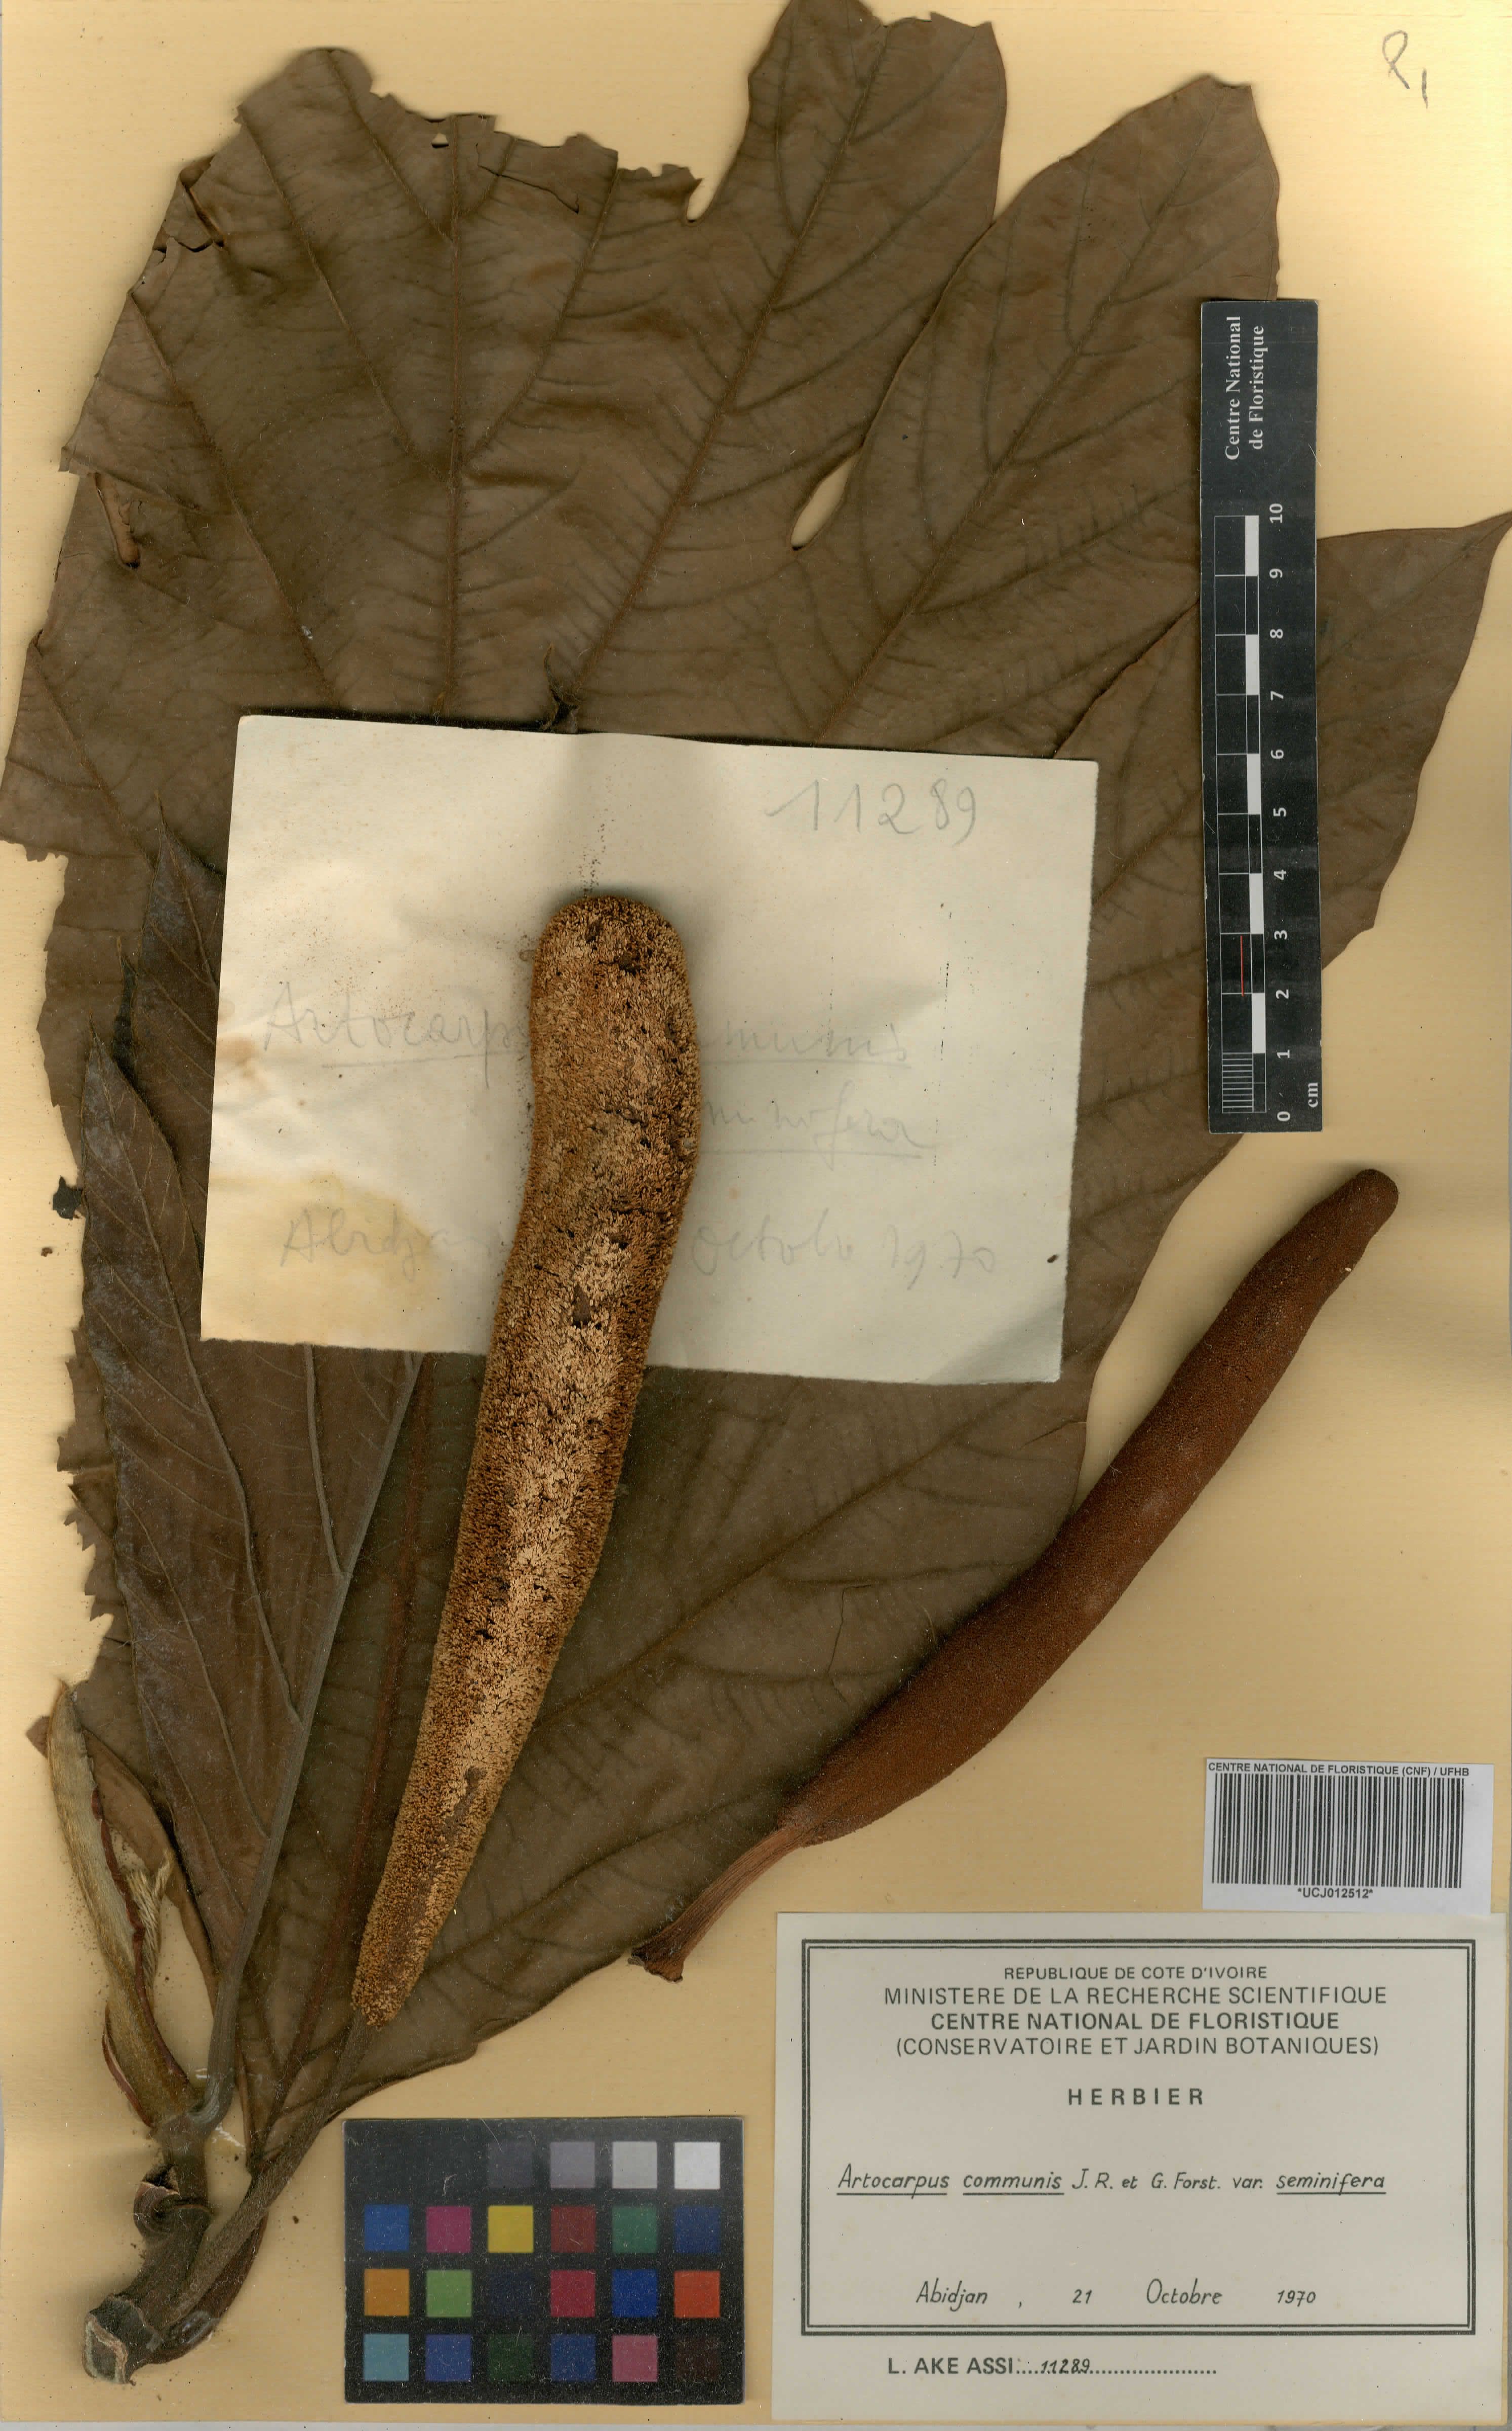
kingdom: Plantae
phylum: Tracheophyta
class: Magnoliopsida
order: Rosales
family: Moraceae
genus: Artocarpus
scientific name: Artocarpus altilis
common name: Breadfruit
